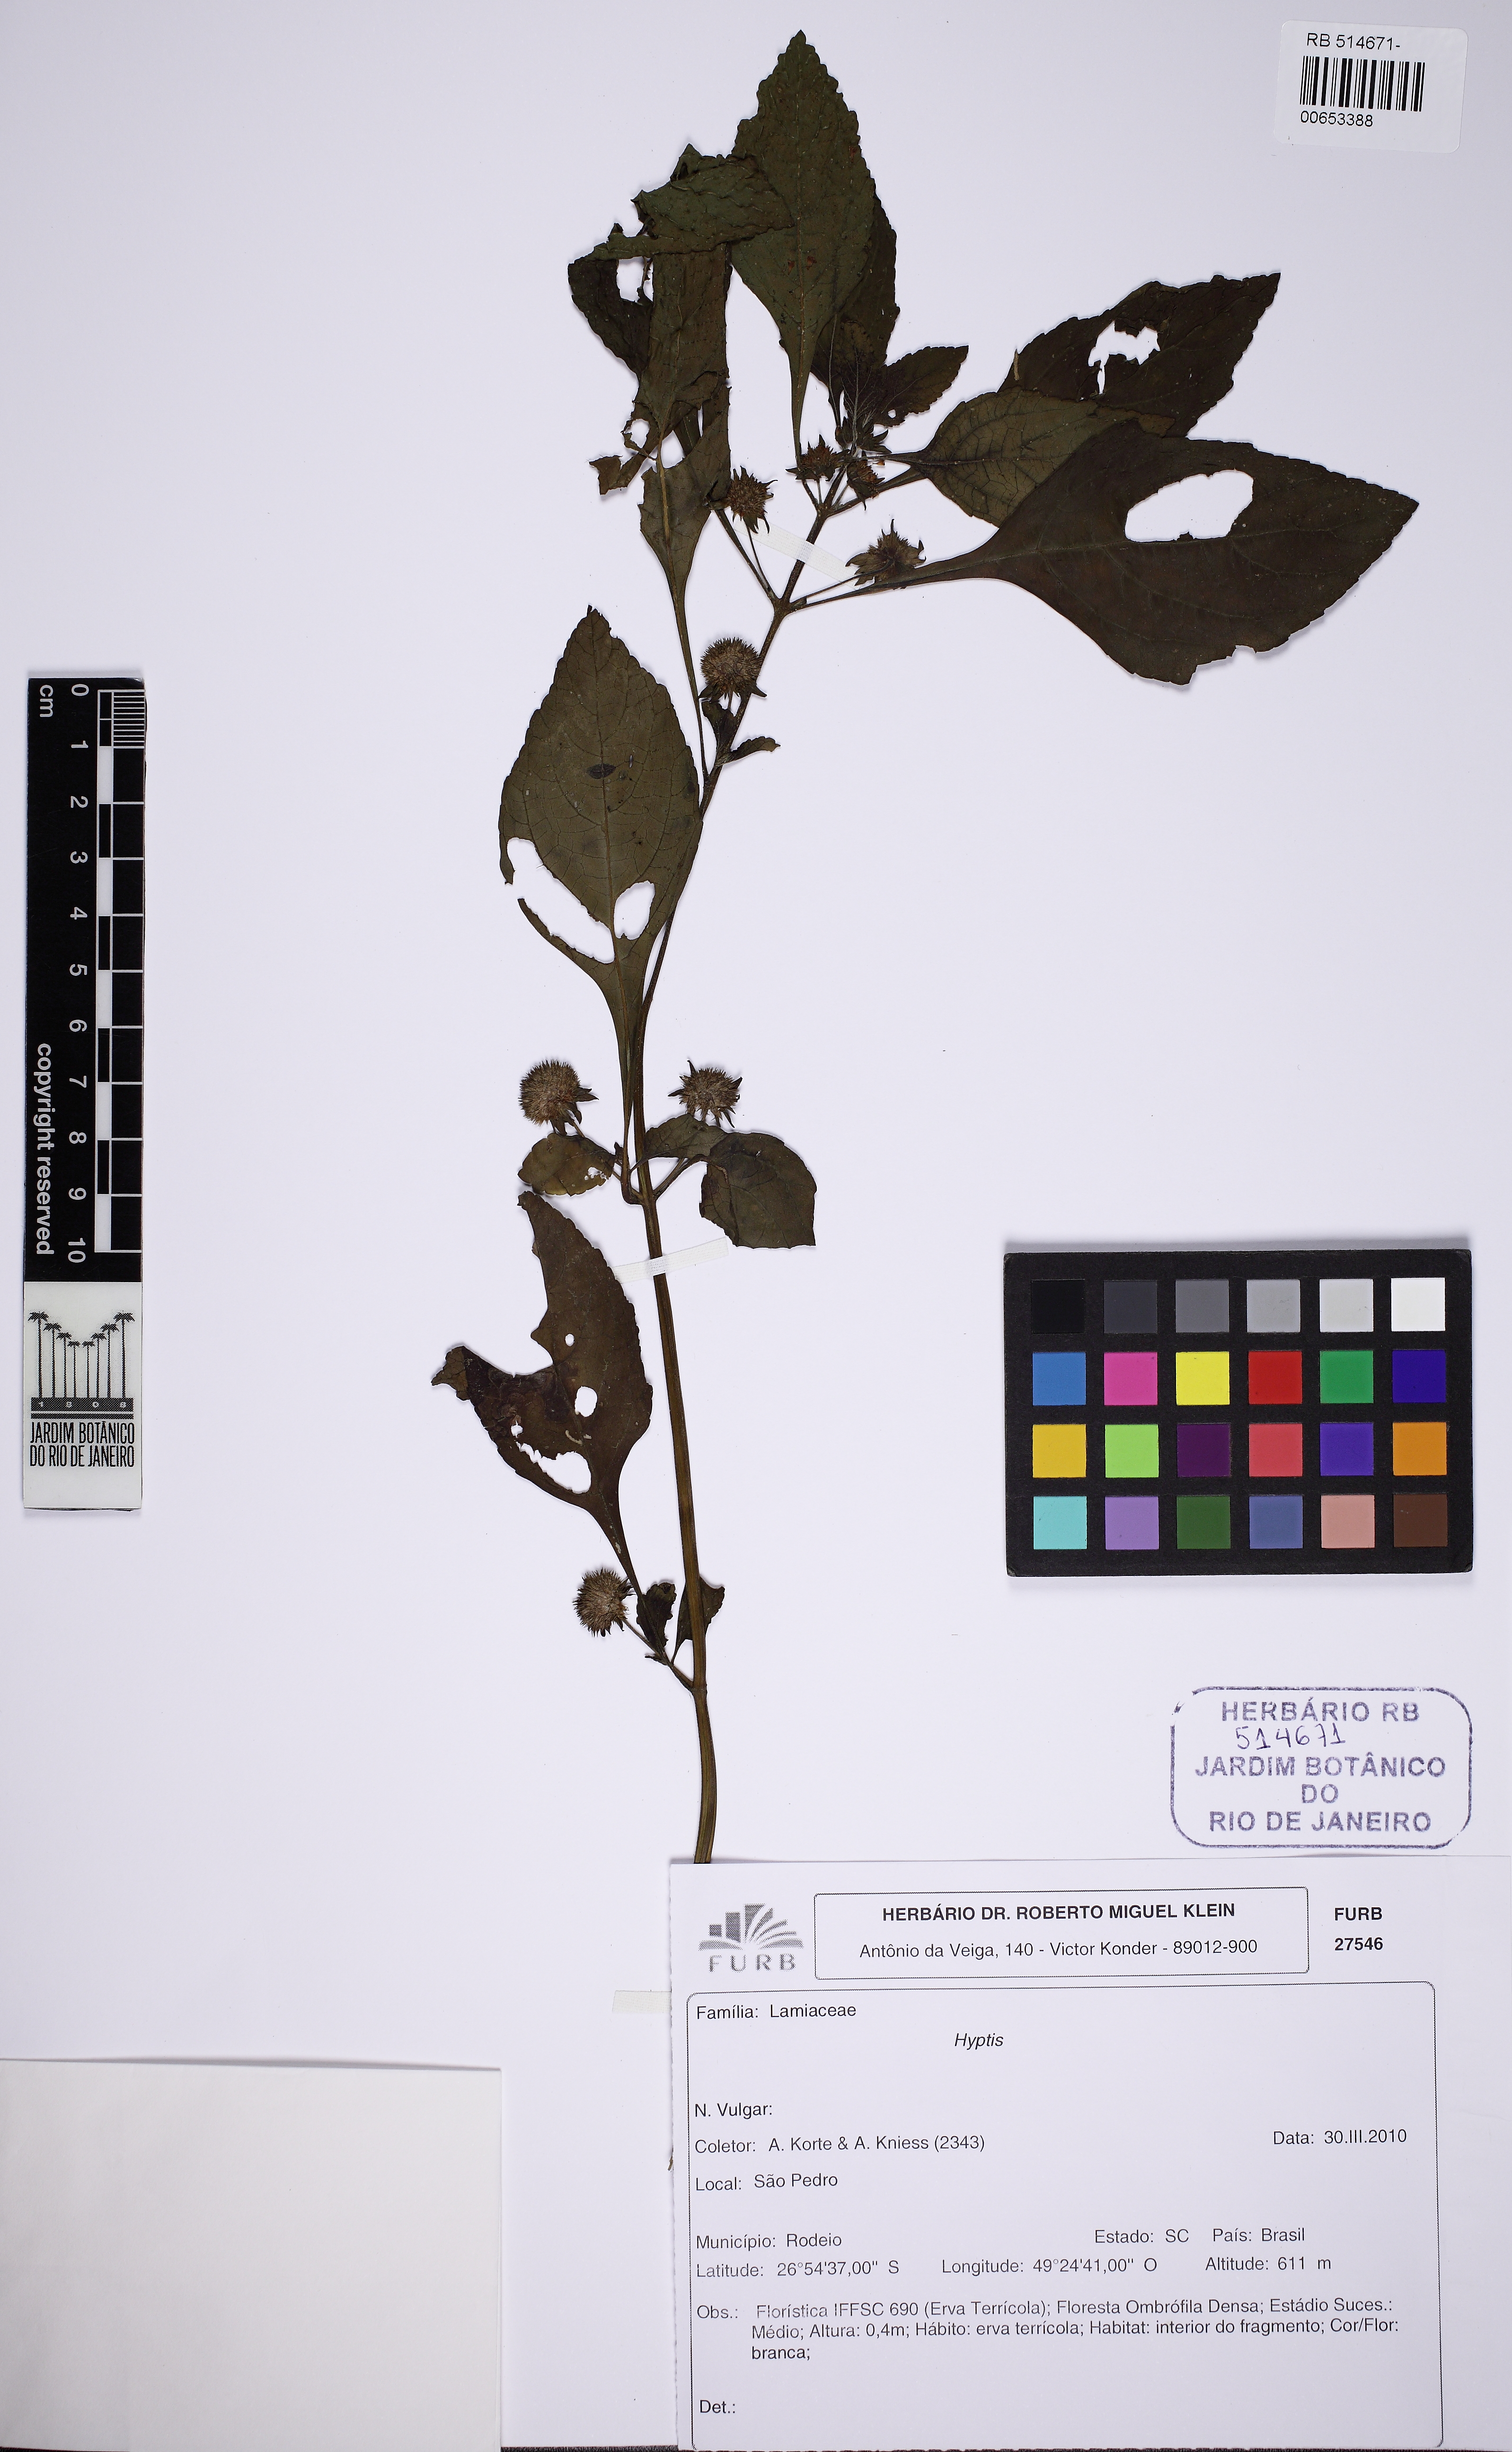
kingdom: Plantae
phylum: Tracheophyta
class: Magnoliopsida
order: Lamiales
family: Lamiaceae
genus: Hyptis
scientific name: Hyptis
